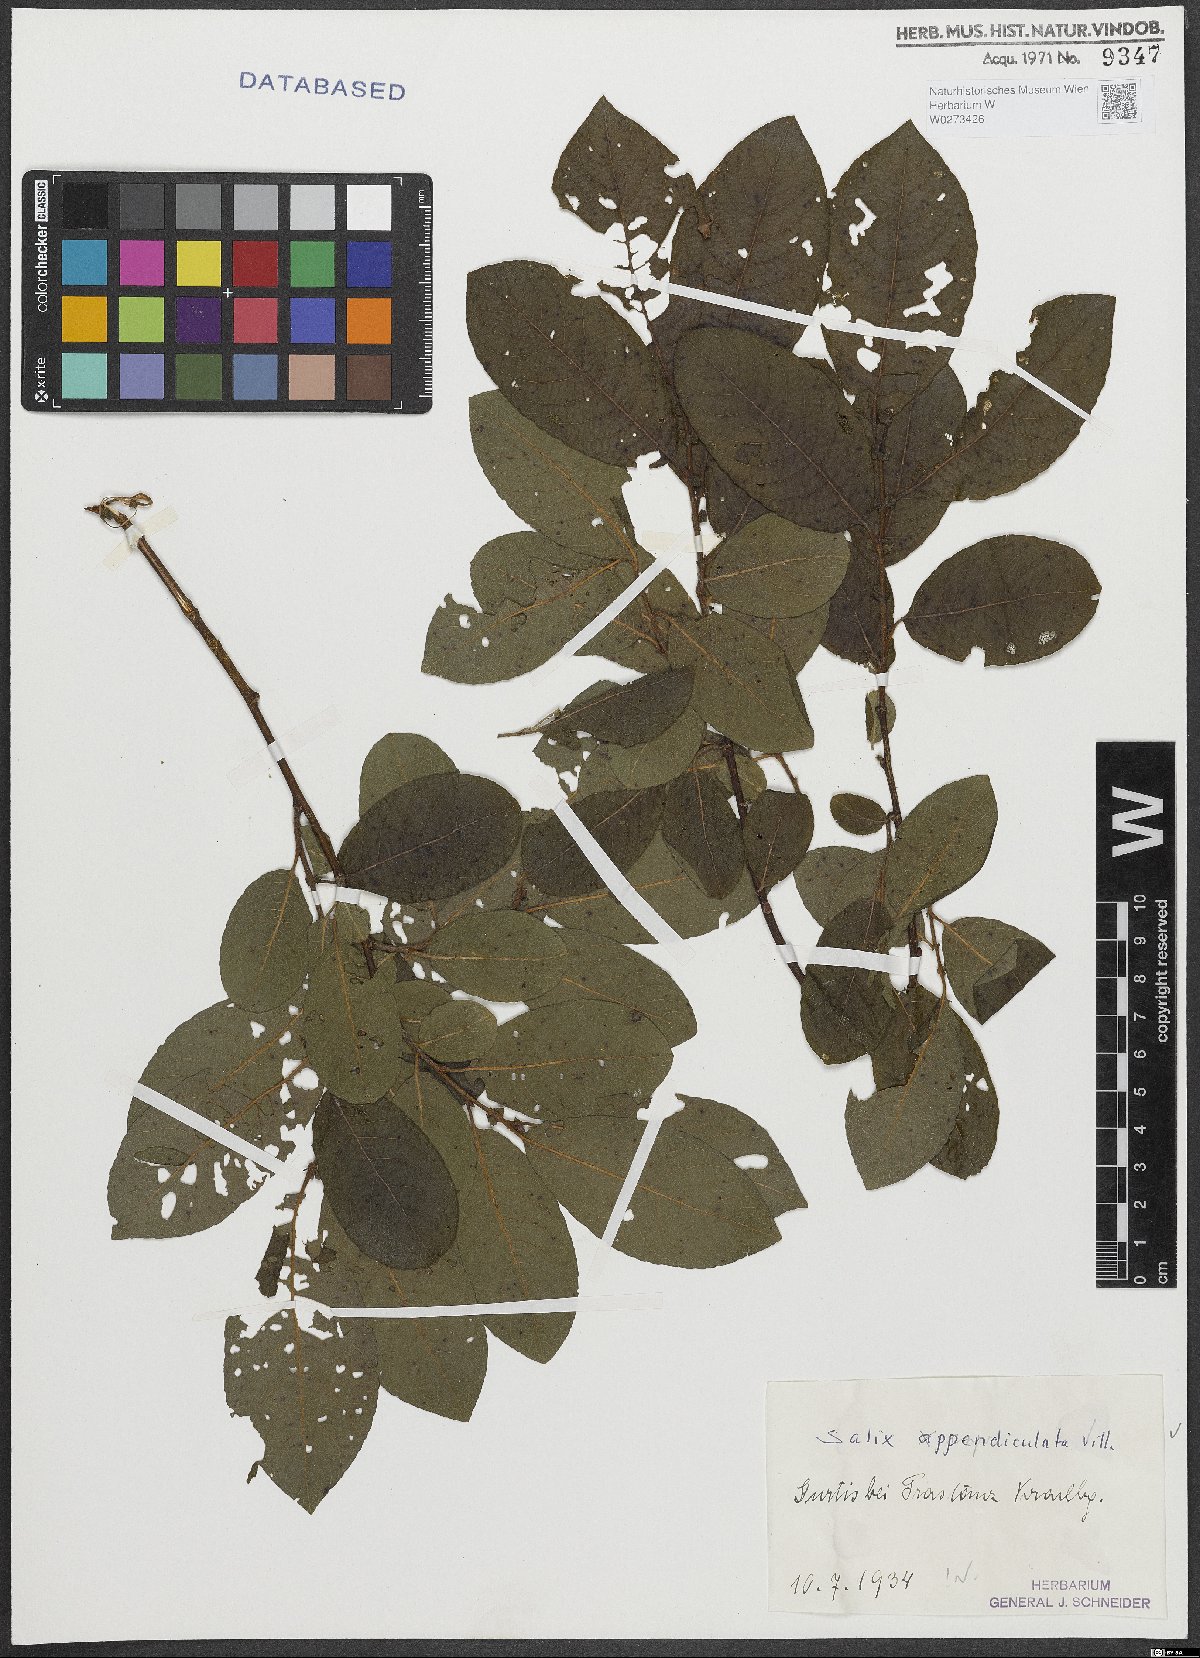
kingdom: Plantae
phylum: Tracheophyta
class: Magnoliopsida
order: Malpighiales
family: Salicaceae
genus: Salix
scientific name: Salix appendiculata
